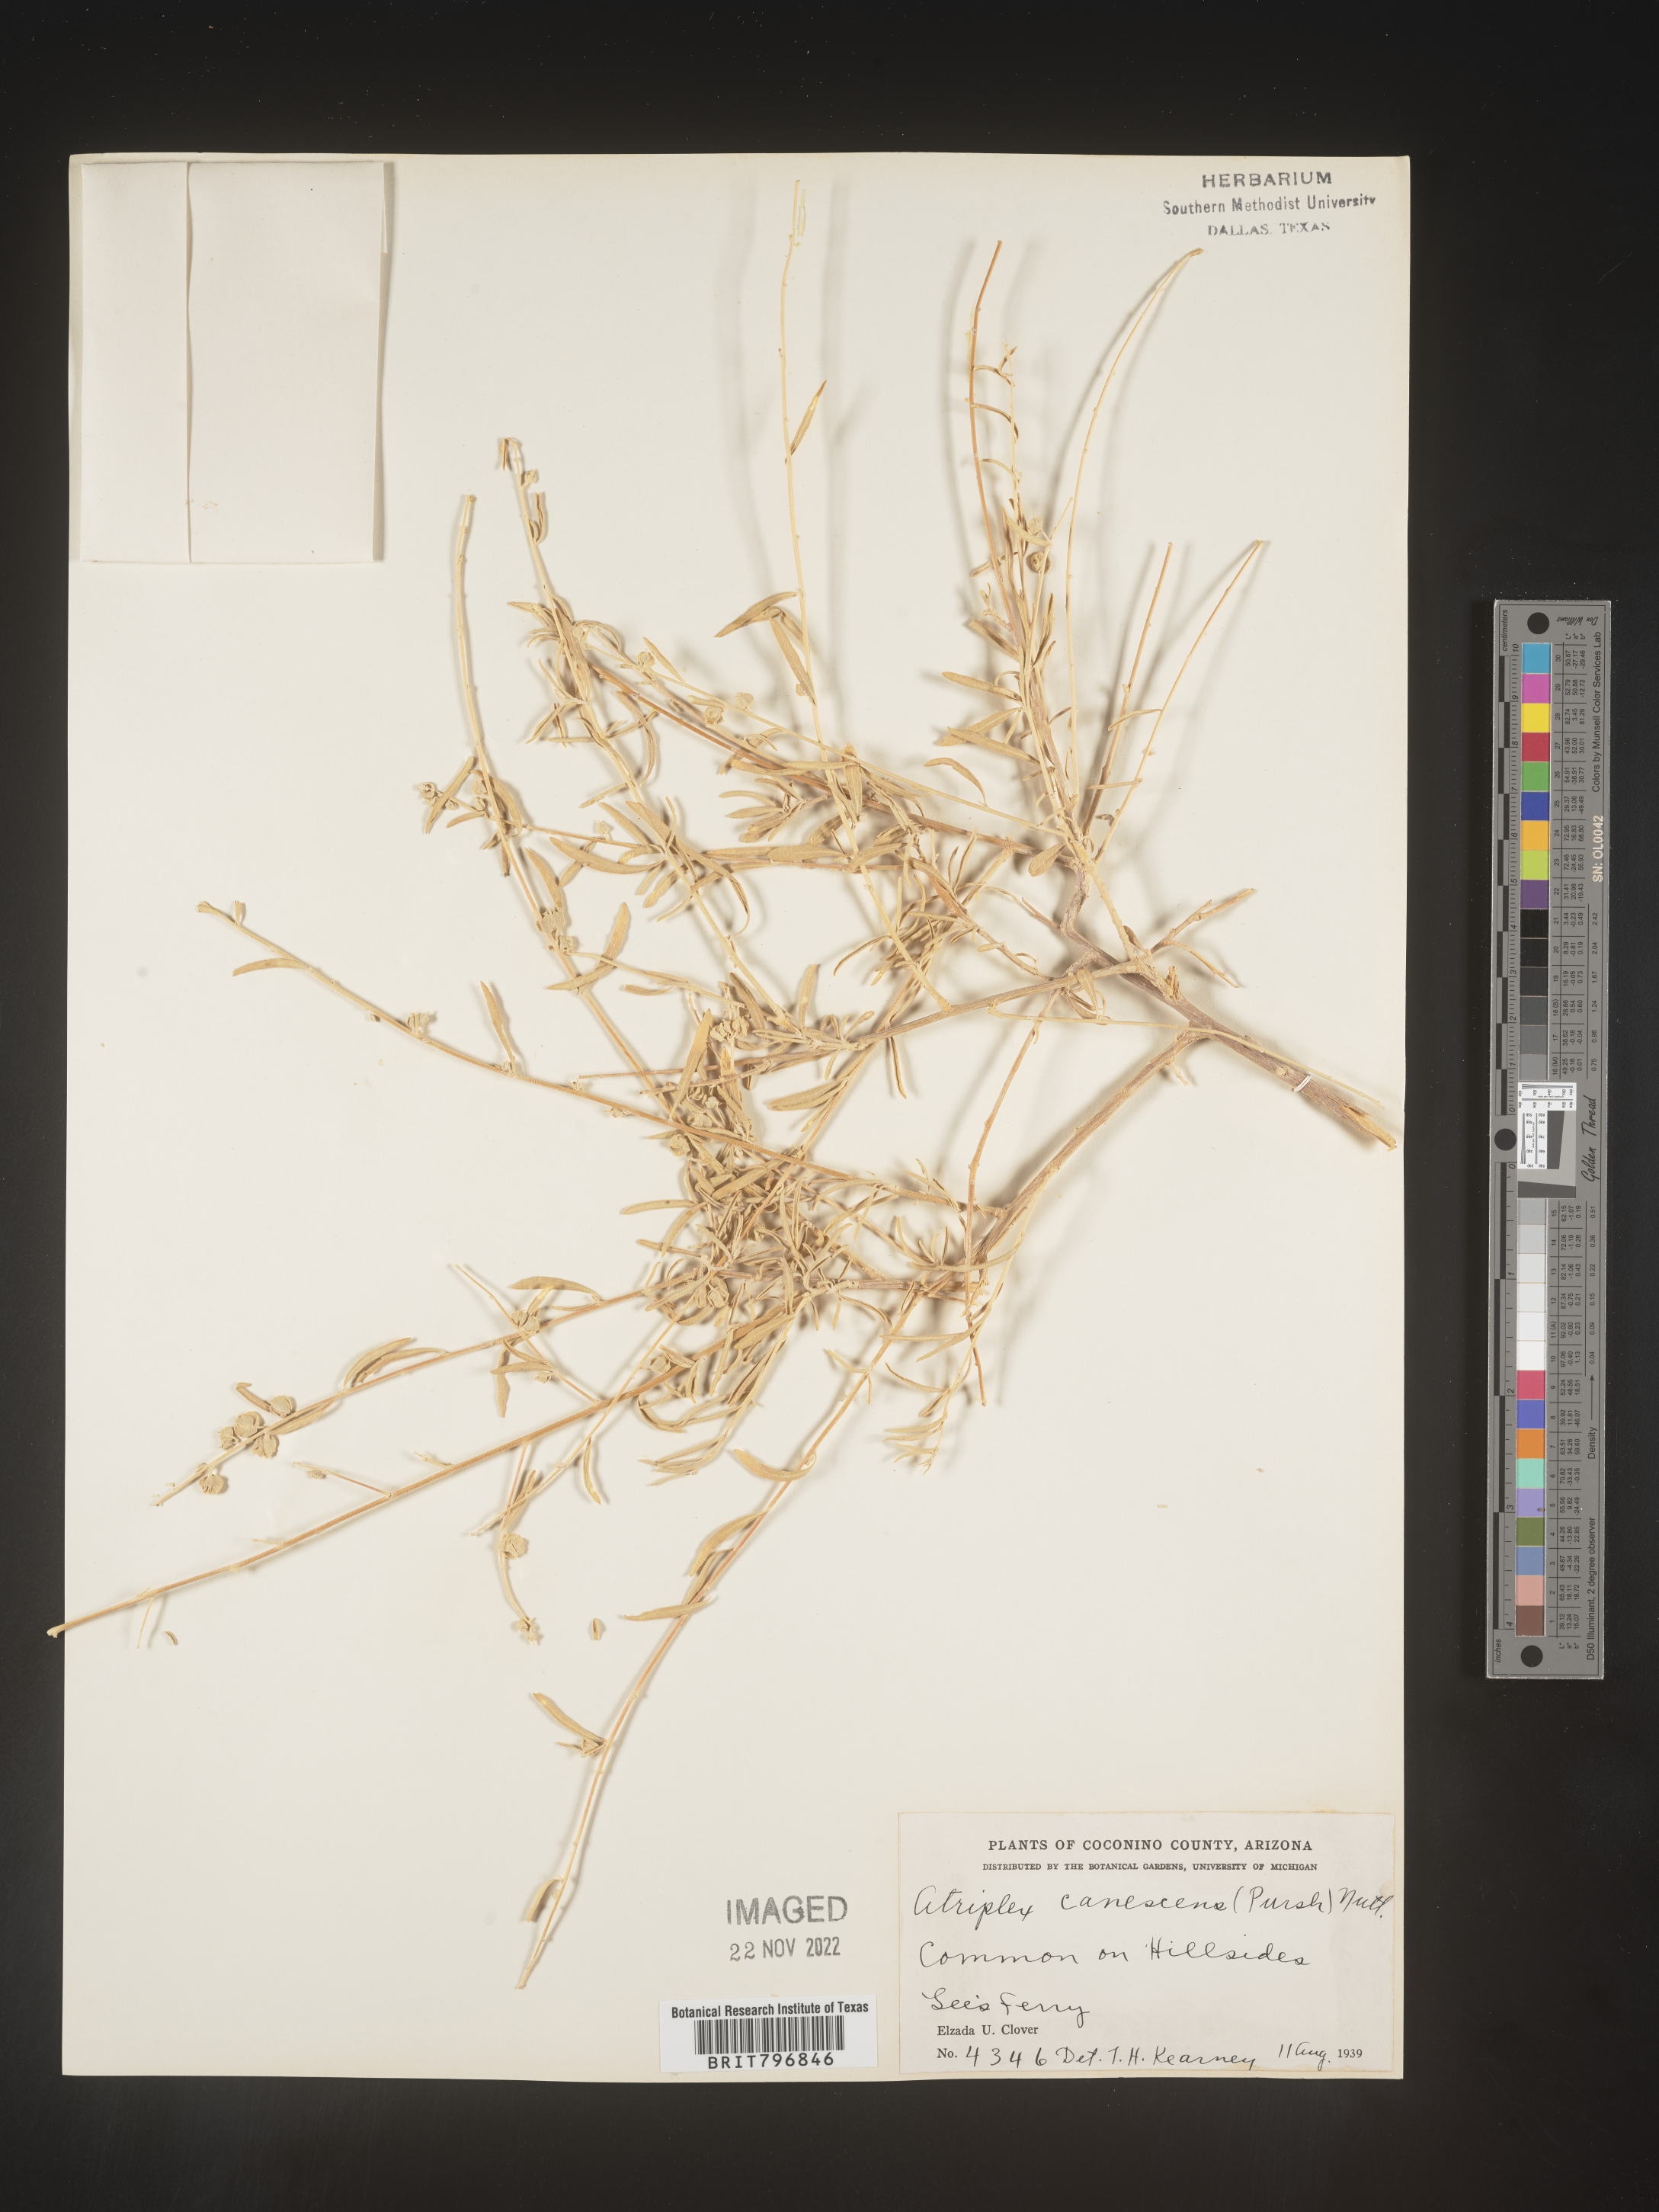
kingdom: Plantae
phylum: Tracheophyta
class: Magnoliopsida
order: Caryophyllales
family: Amaranthaceae
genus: Atriplex
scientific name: Atriplex canescens
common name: Four-wing saltbush
